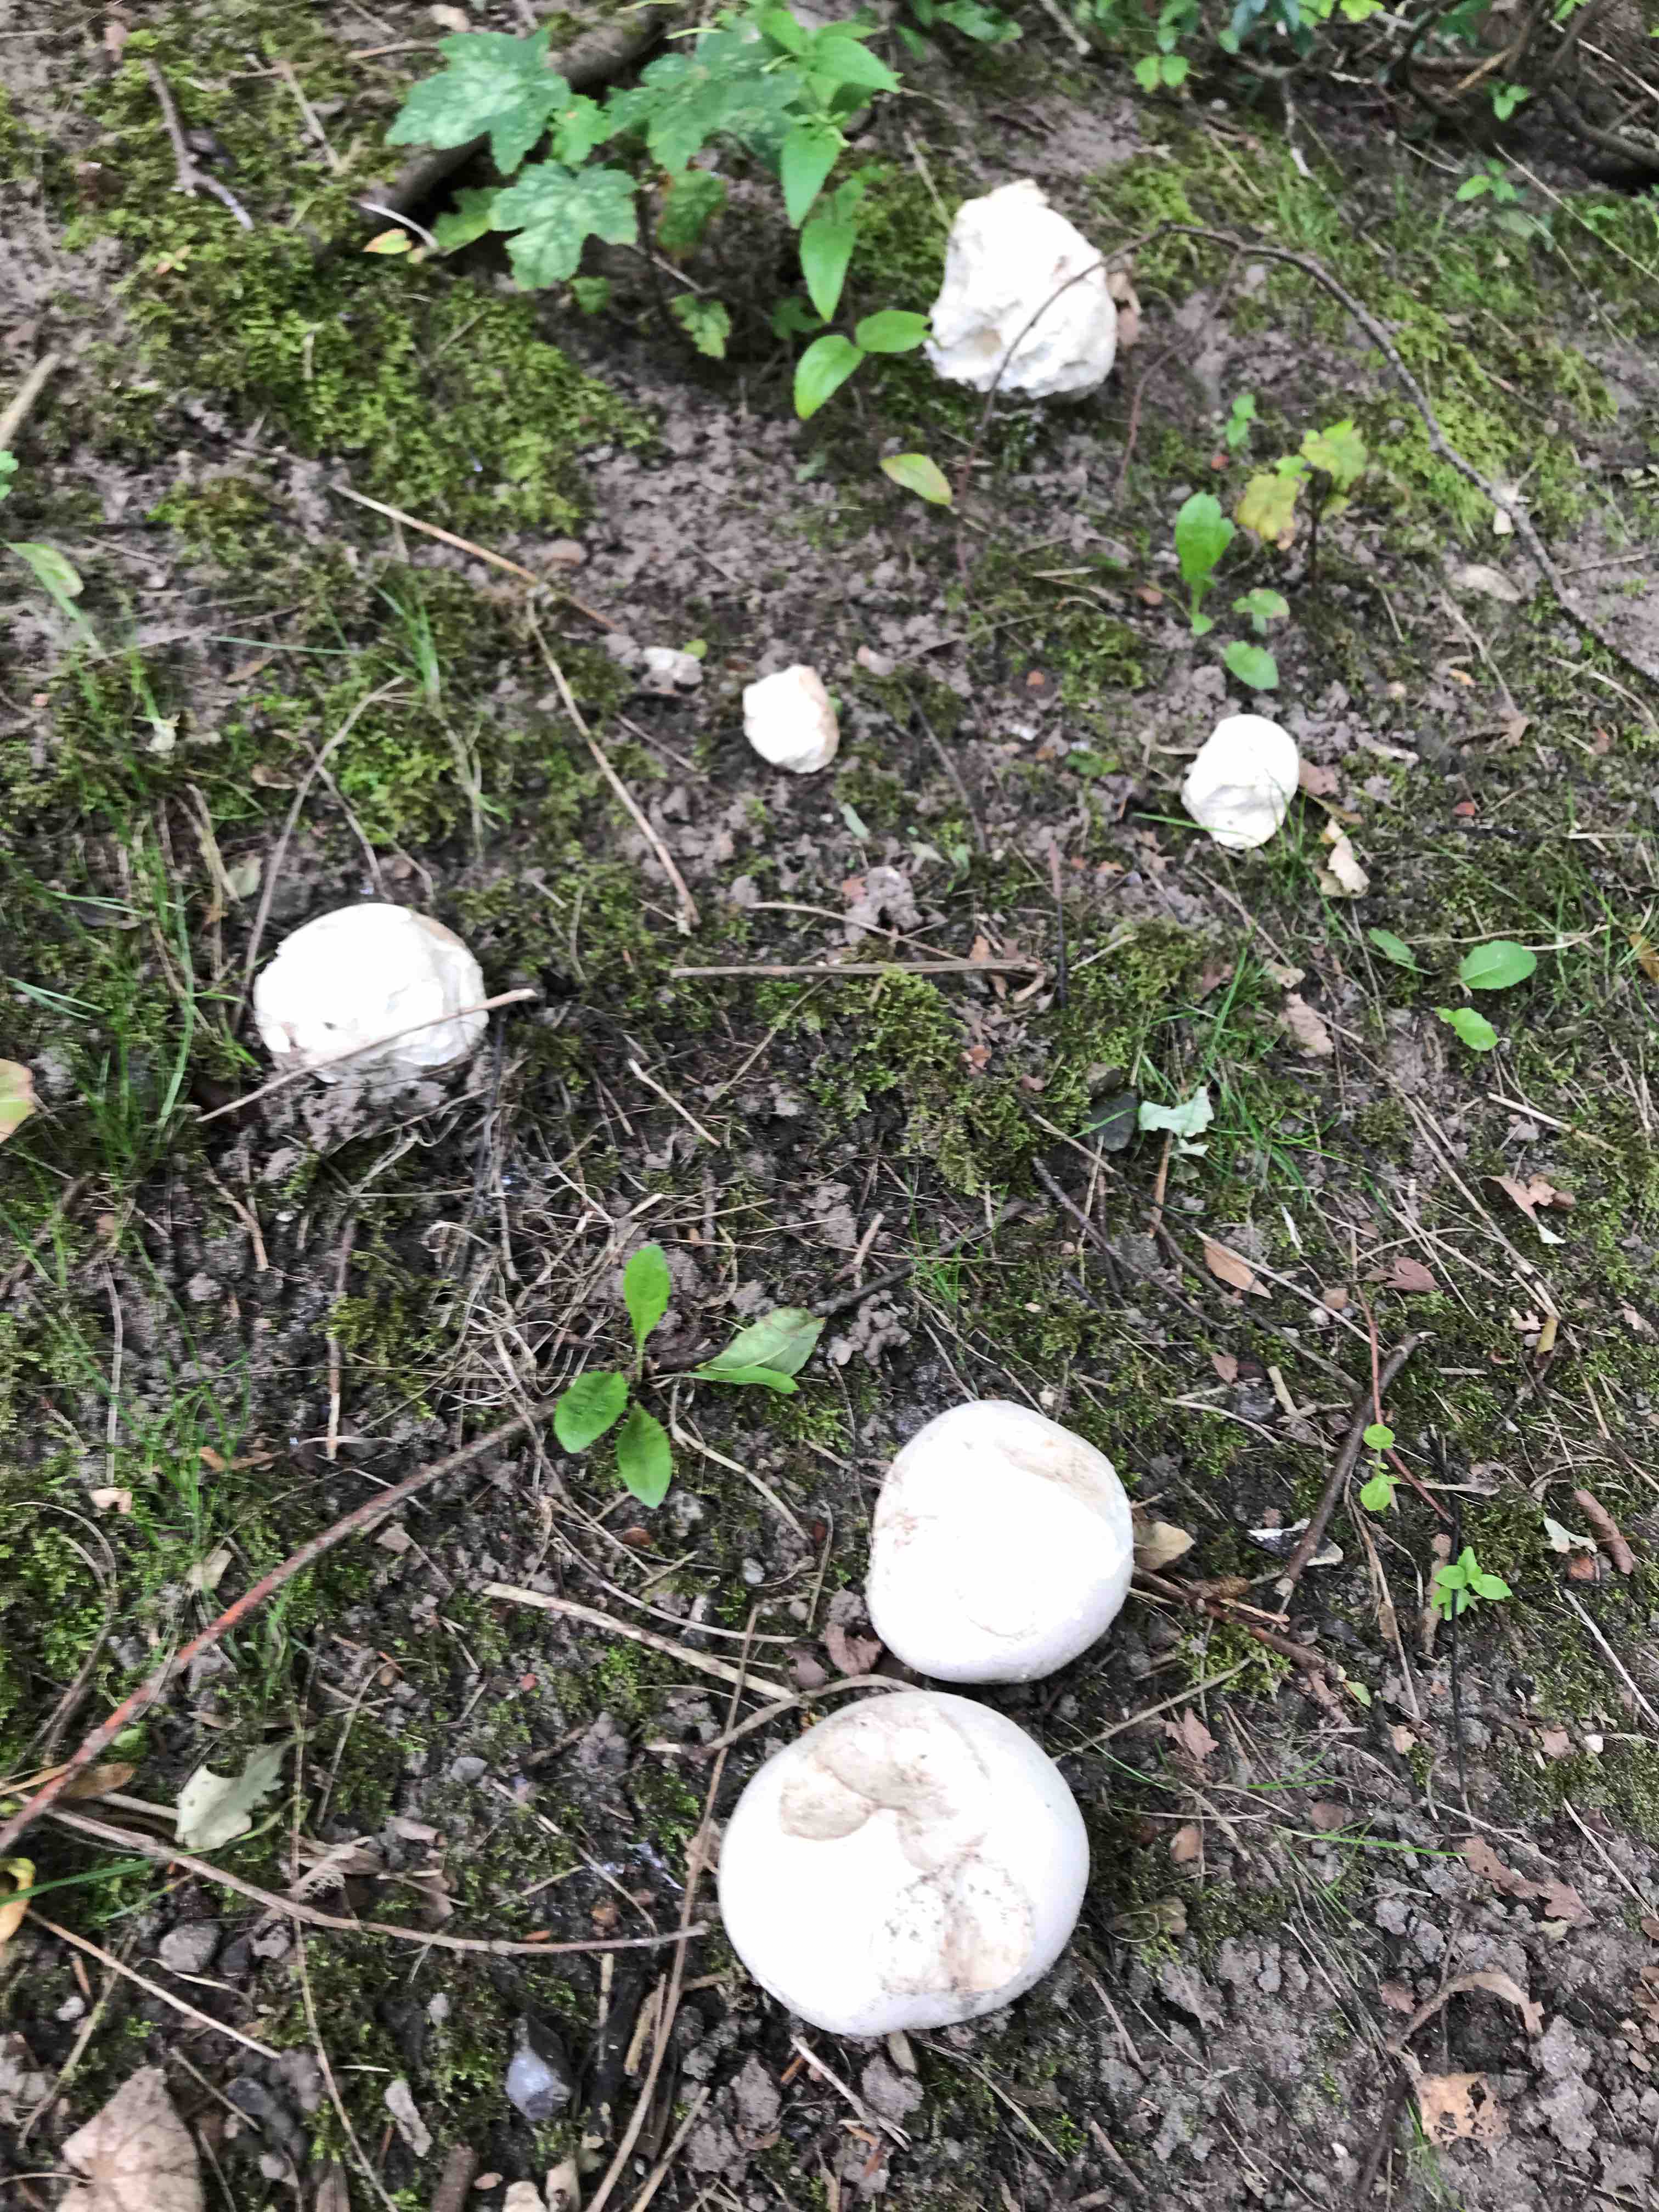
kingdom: Fungi
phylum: Basidiomycota
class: Agaricomycetes
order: Agaricales
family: Lycoperdaceae
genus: Calvatia
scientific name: Calvatia gigantea
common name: kæmpestøvbold
